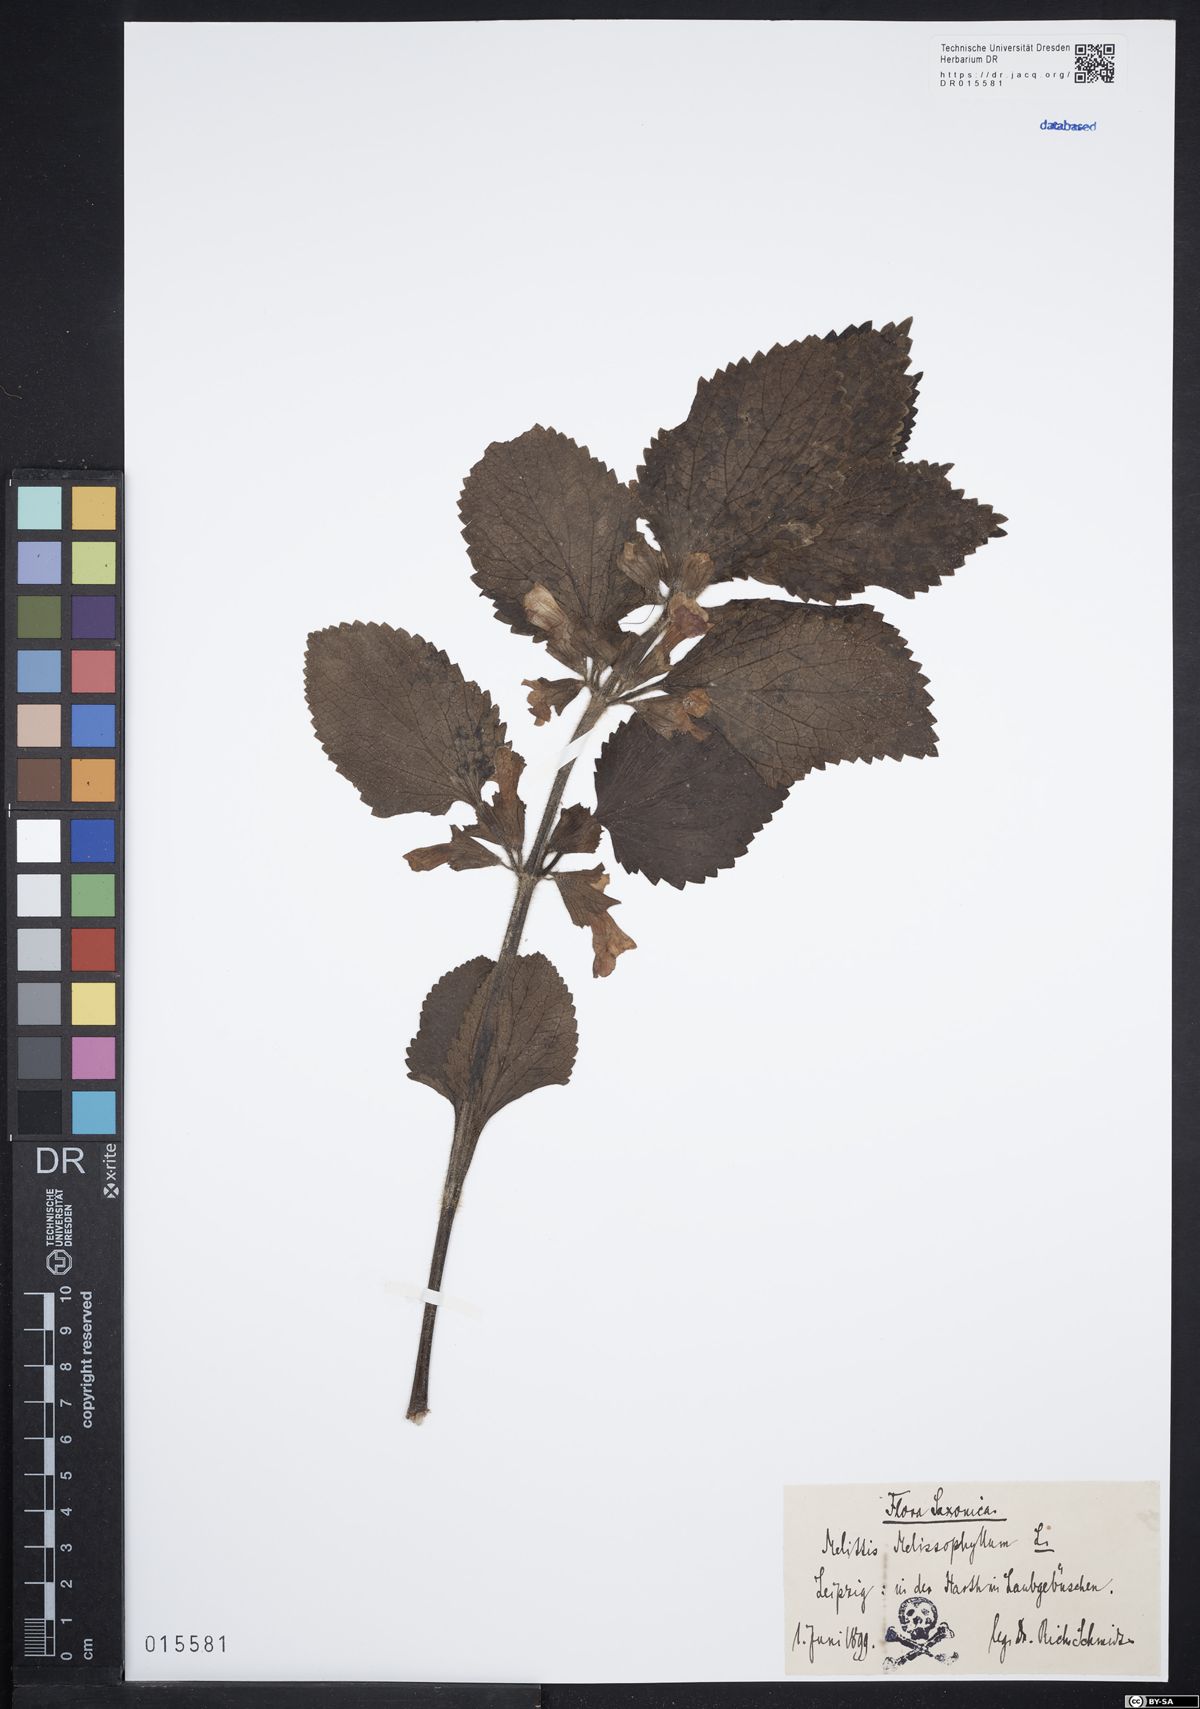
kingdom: Plantae
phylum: Tracheophyta
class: Magnoliopsida
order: Lamiales
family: Lamiaceae
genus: Melittis
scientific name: Melittis melissophyllum
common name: Bastard balm
